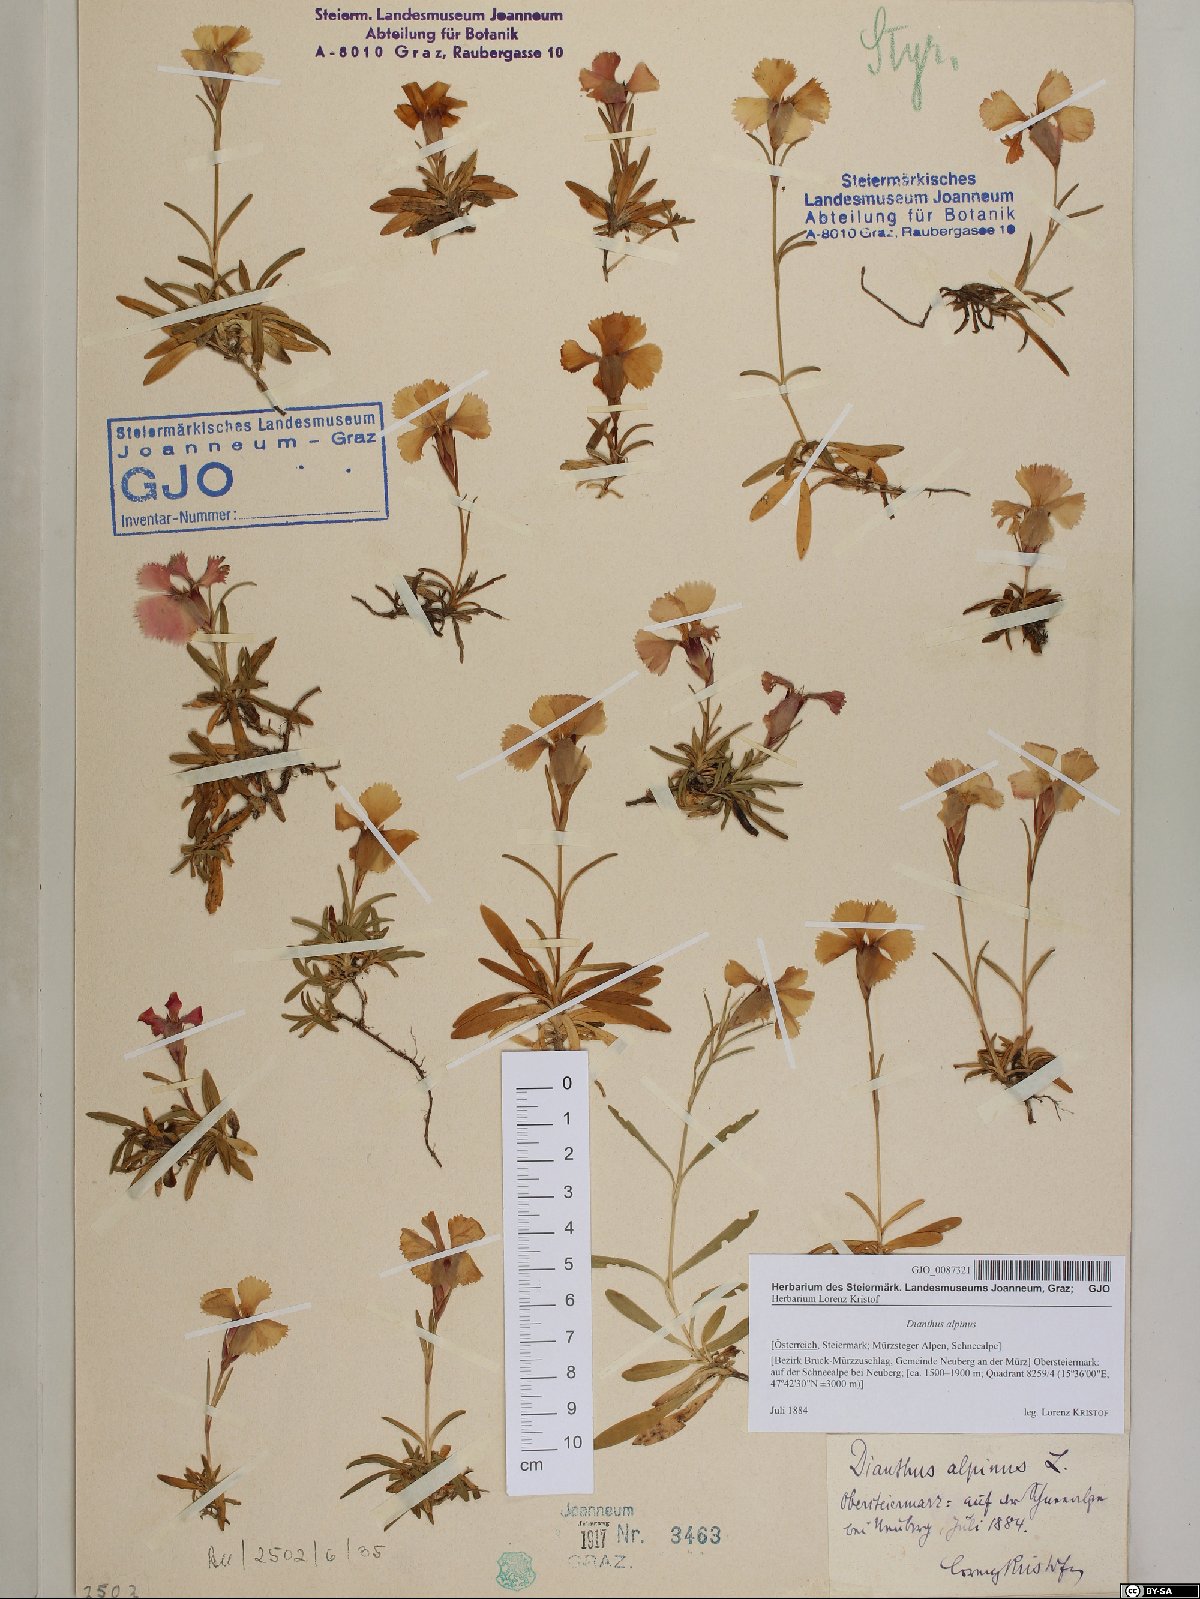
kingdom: Plantae
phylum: Tracheophyta
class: Magnoliopsida
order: Caryophyllales
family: Caryophyllaceae
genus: Dianthus
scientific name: Dianthus alpinus
